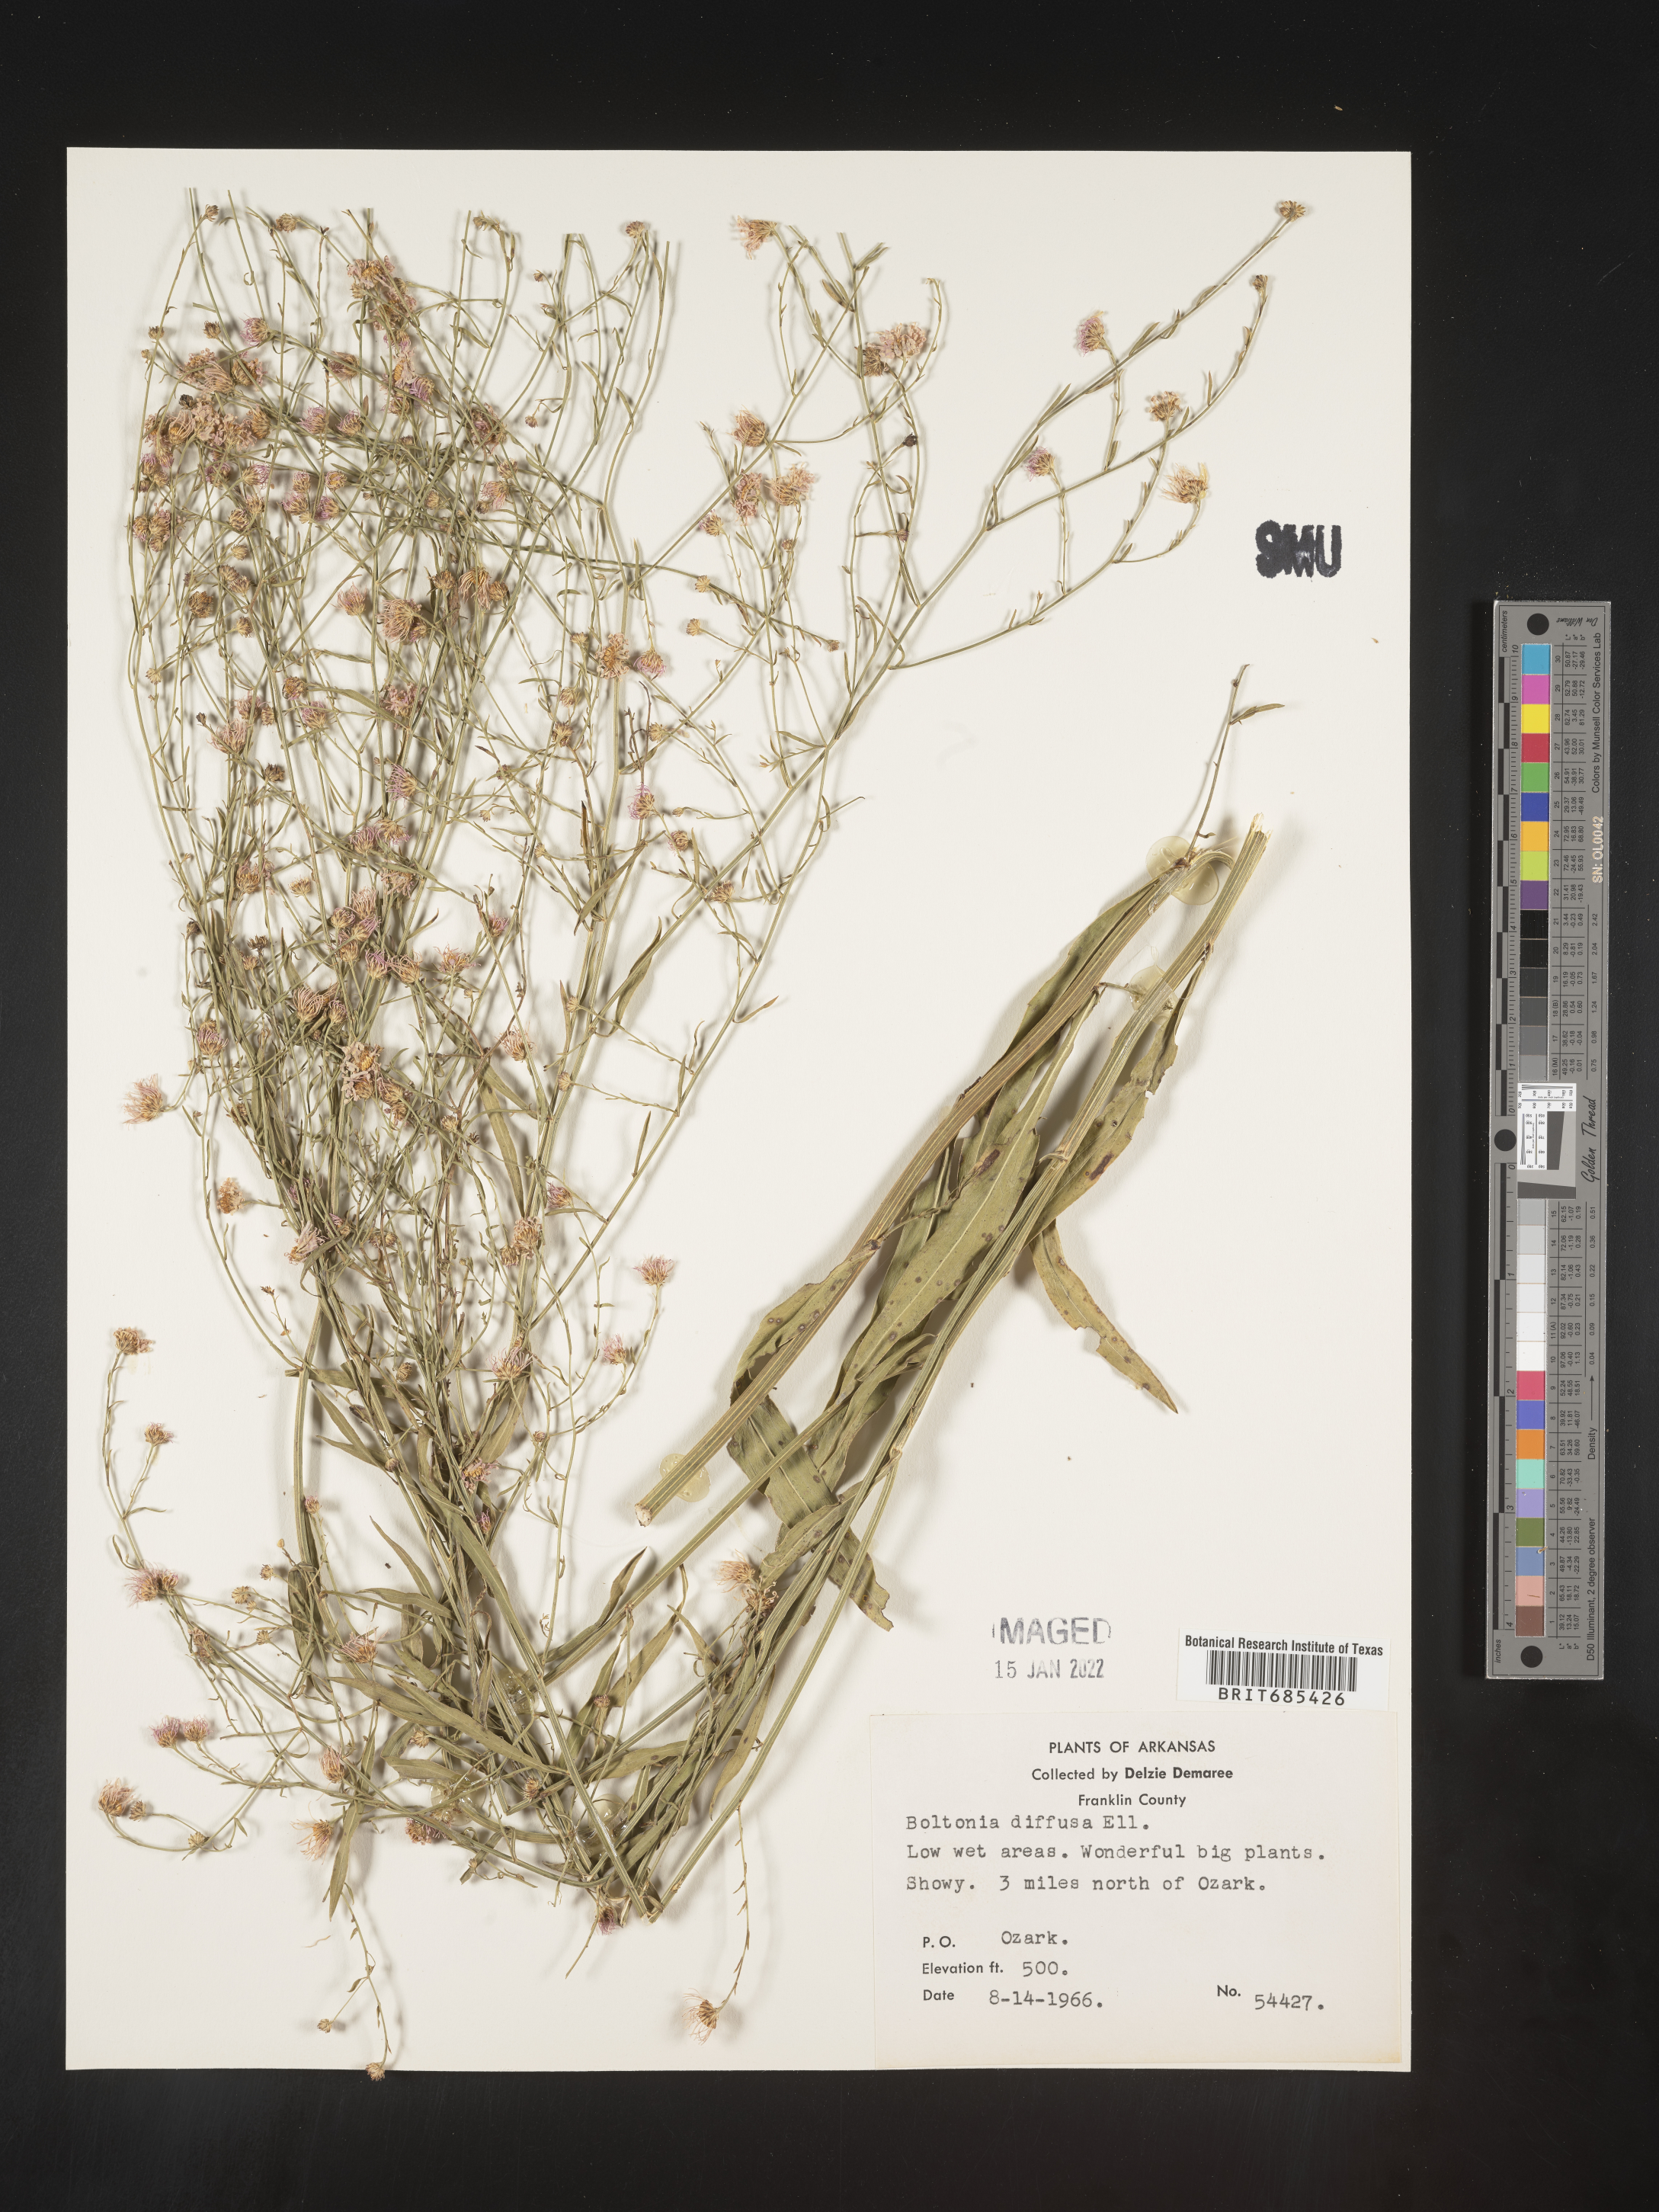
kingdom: Plantae
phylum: Tracheophyta
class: Magnoliopsida
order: Asterales
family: Asteraceae
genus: Boltonia
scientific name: Boltonia diffusa
